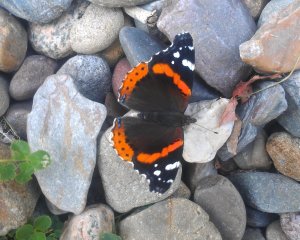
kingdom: Animalia
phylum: Arthropoda
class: Insecta
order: Lepidoptera
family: Nymphalidae
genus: Vanessa
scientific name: Vanessa atalanta
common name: Red Admiral
